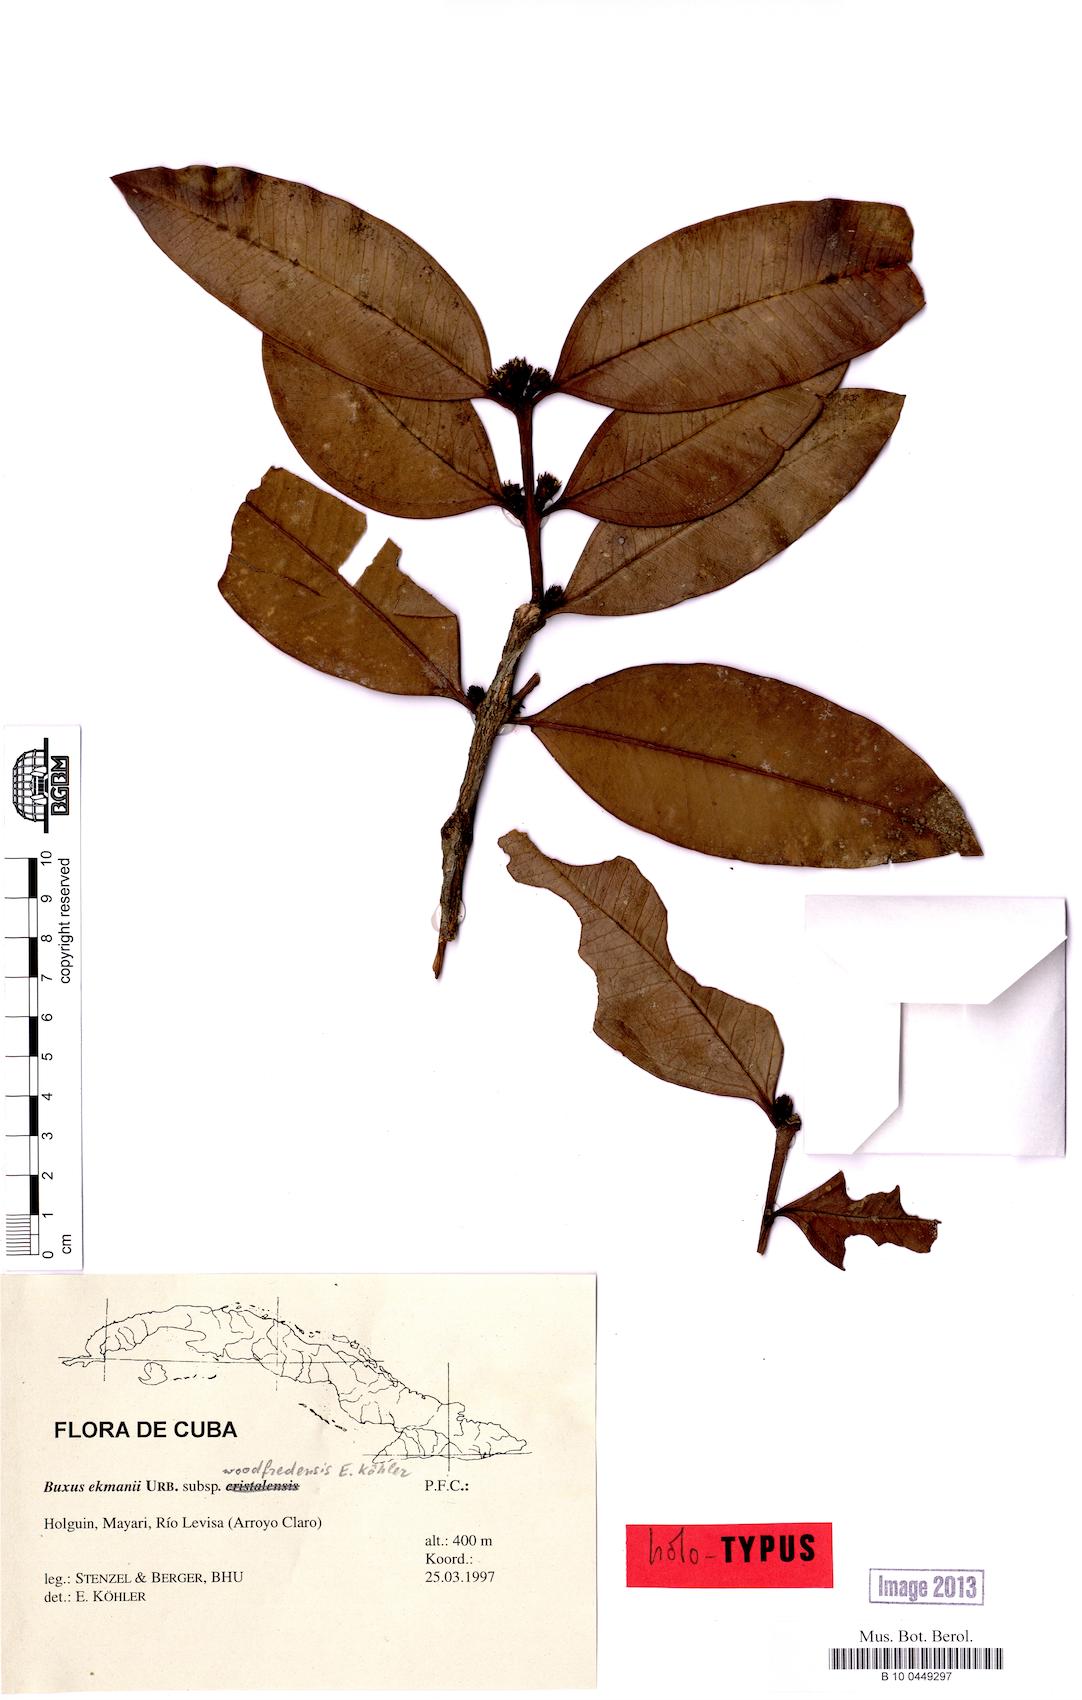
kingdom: Plantae
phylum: Tracheophyta
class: Magnoliopsida
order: Buxales
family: Buxaceae
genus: Buxus
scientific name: Buxus ekmanii
